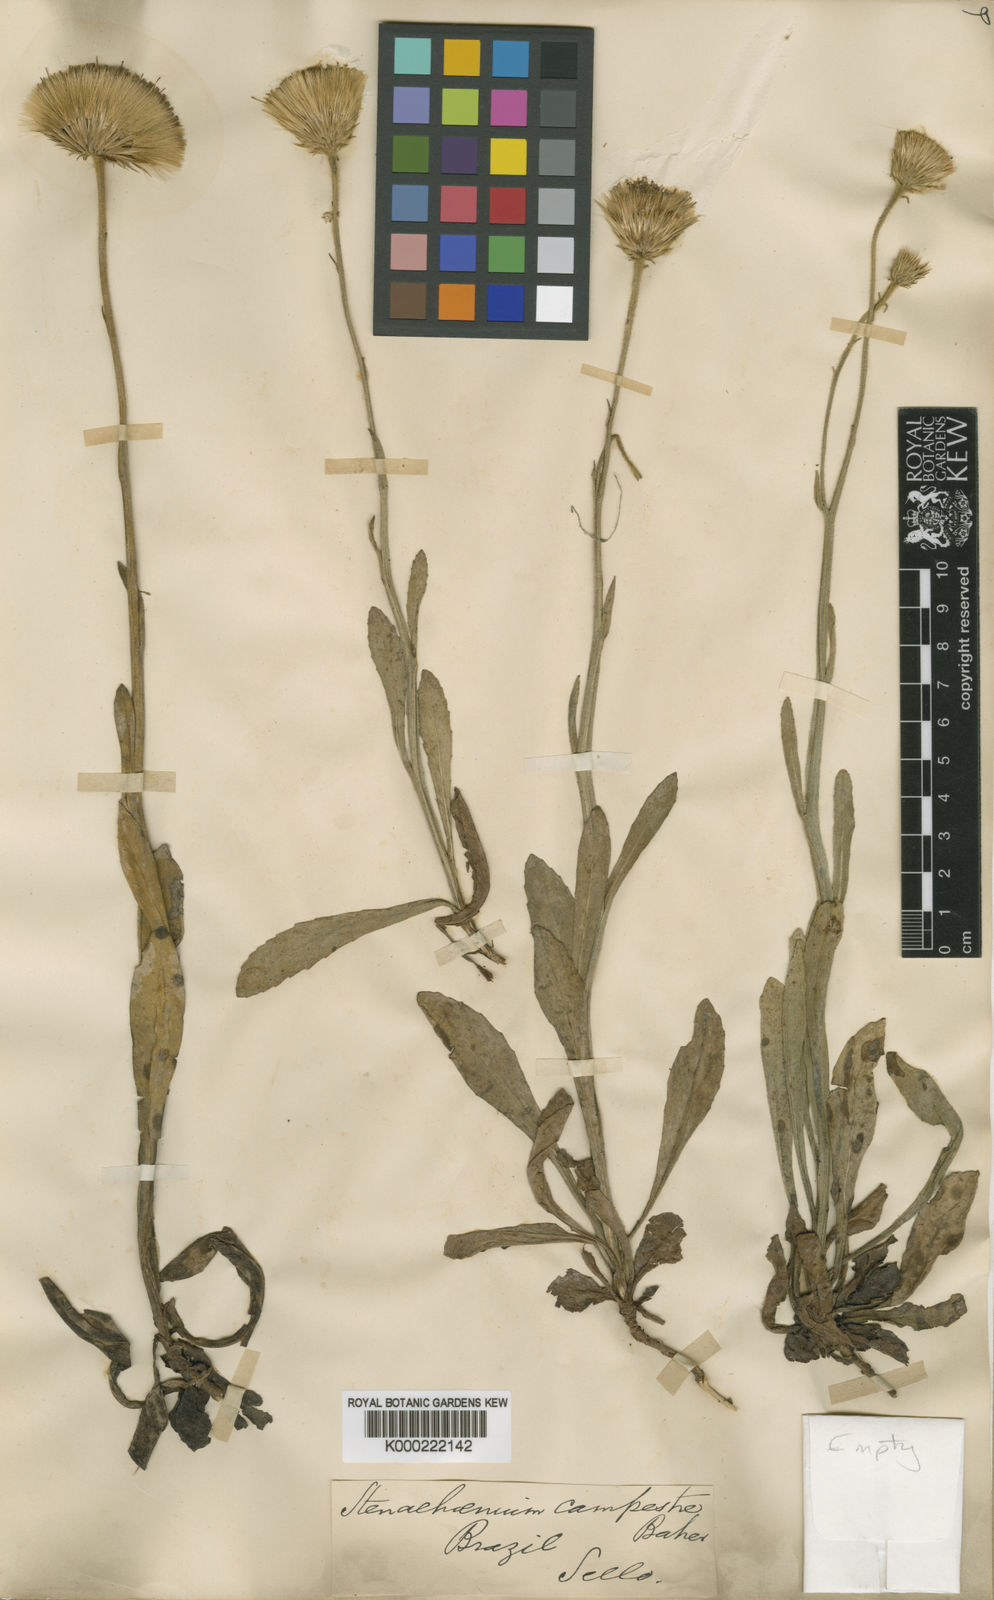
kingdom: Plantae
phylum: Tracheophyta
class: Magnoliopsida
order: Asterales
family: Asteraceae
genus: Stenachaenium
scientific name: Stenachaenium campestre
